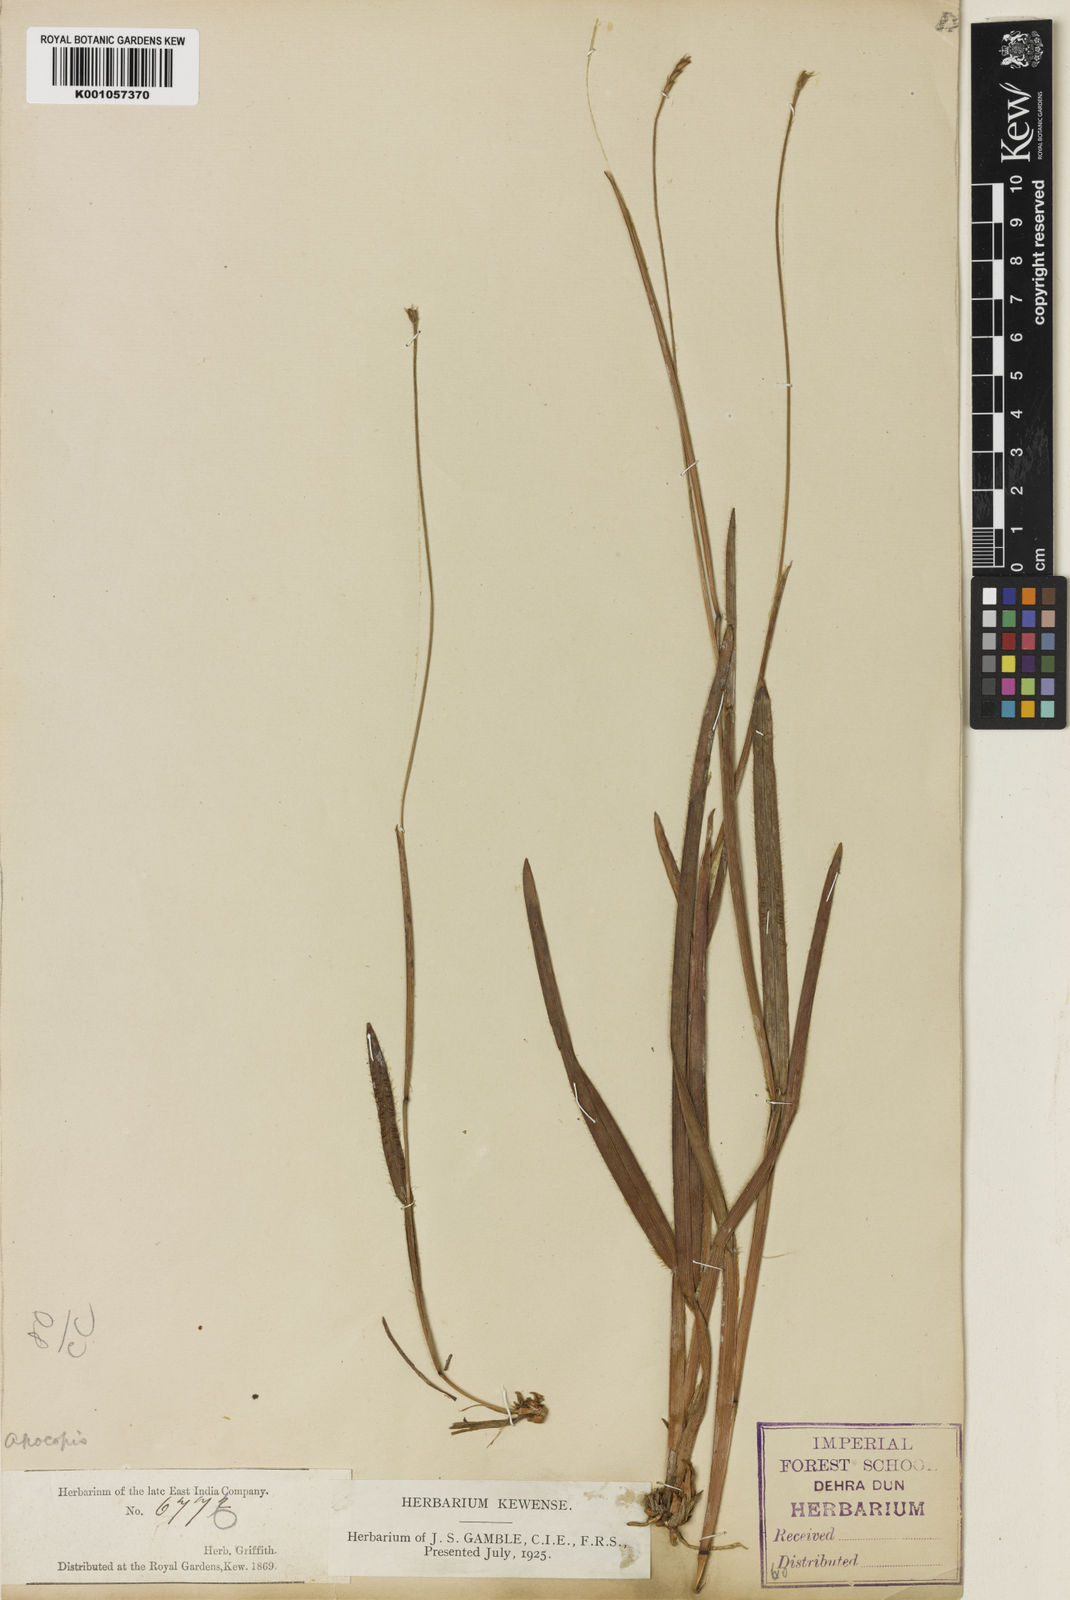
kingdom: Plantae
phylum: Tracheophyta
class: Liliopsida
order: Poales
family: Poaceae
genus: Eremochloa
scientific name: Eremochloa ciliatifolia
